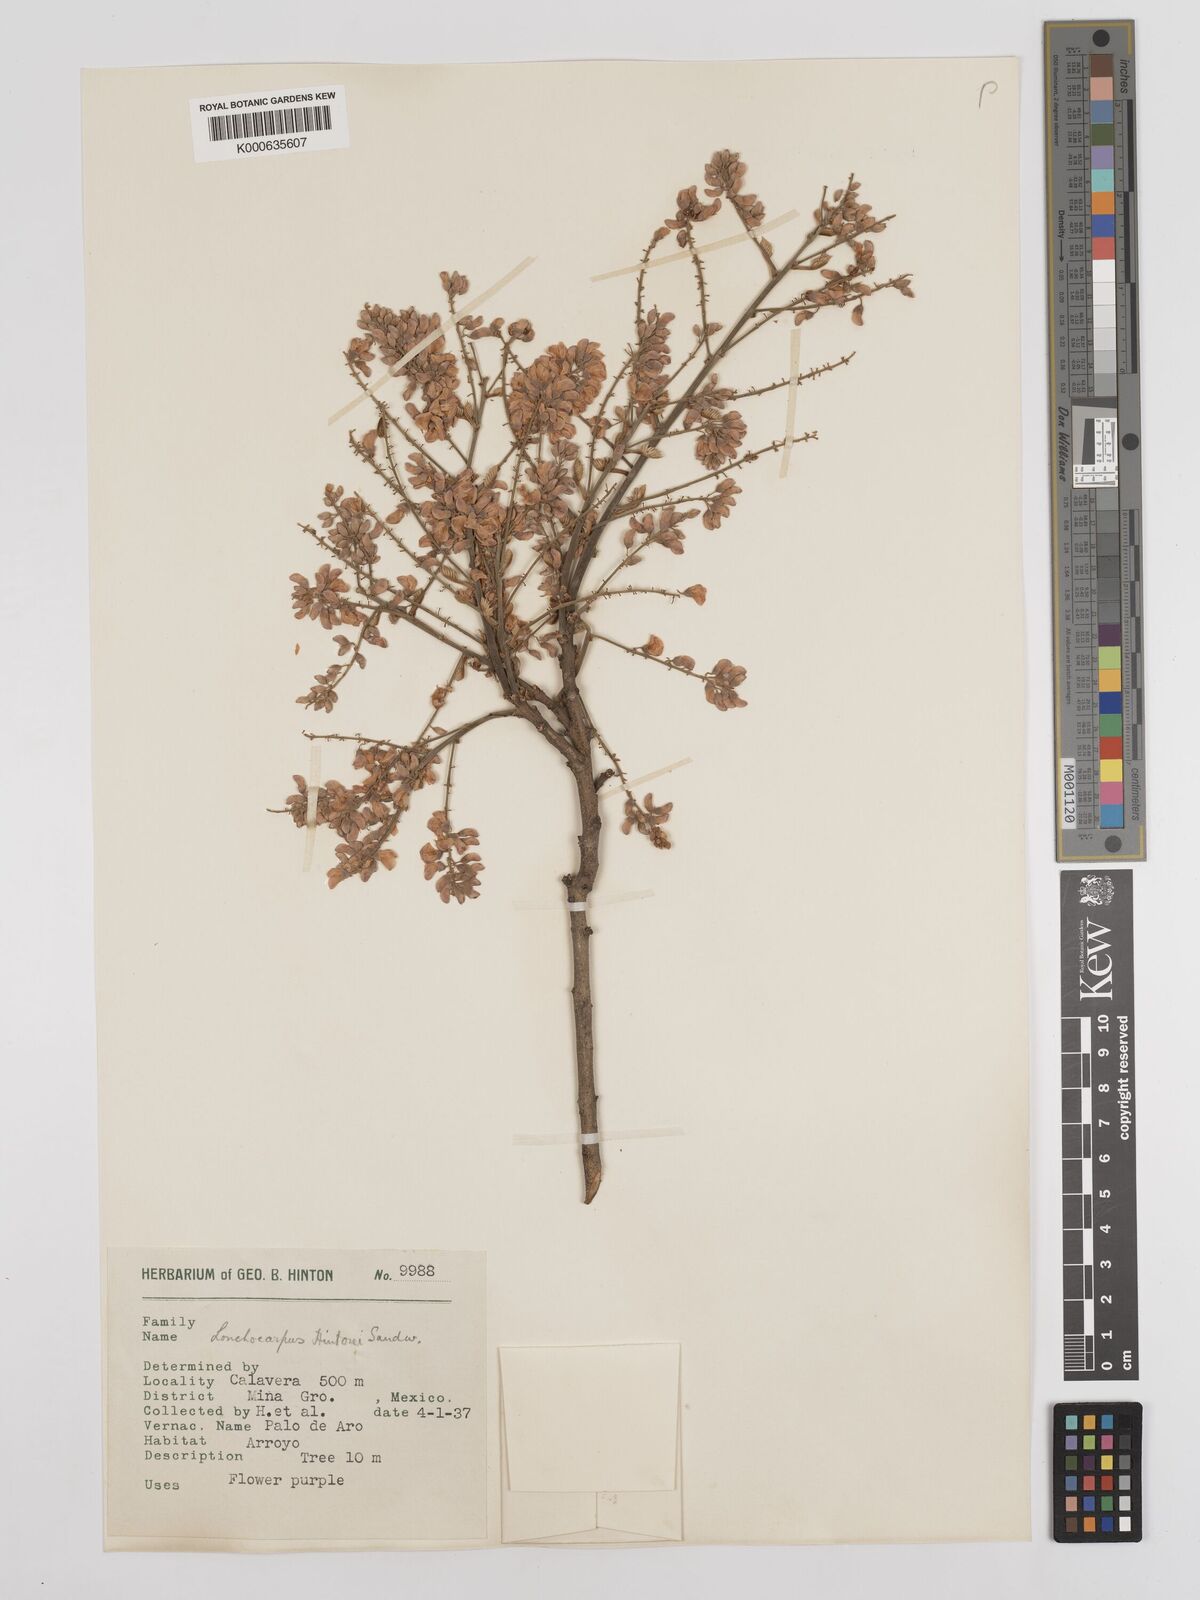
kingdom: Plantae
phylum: Tracheophyta
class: Magnoliopsida
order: Fabales
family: Fabaceae
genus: Lonchocarpus
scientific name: Lonchocarpus hintonii
